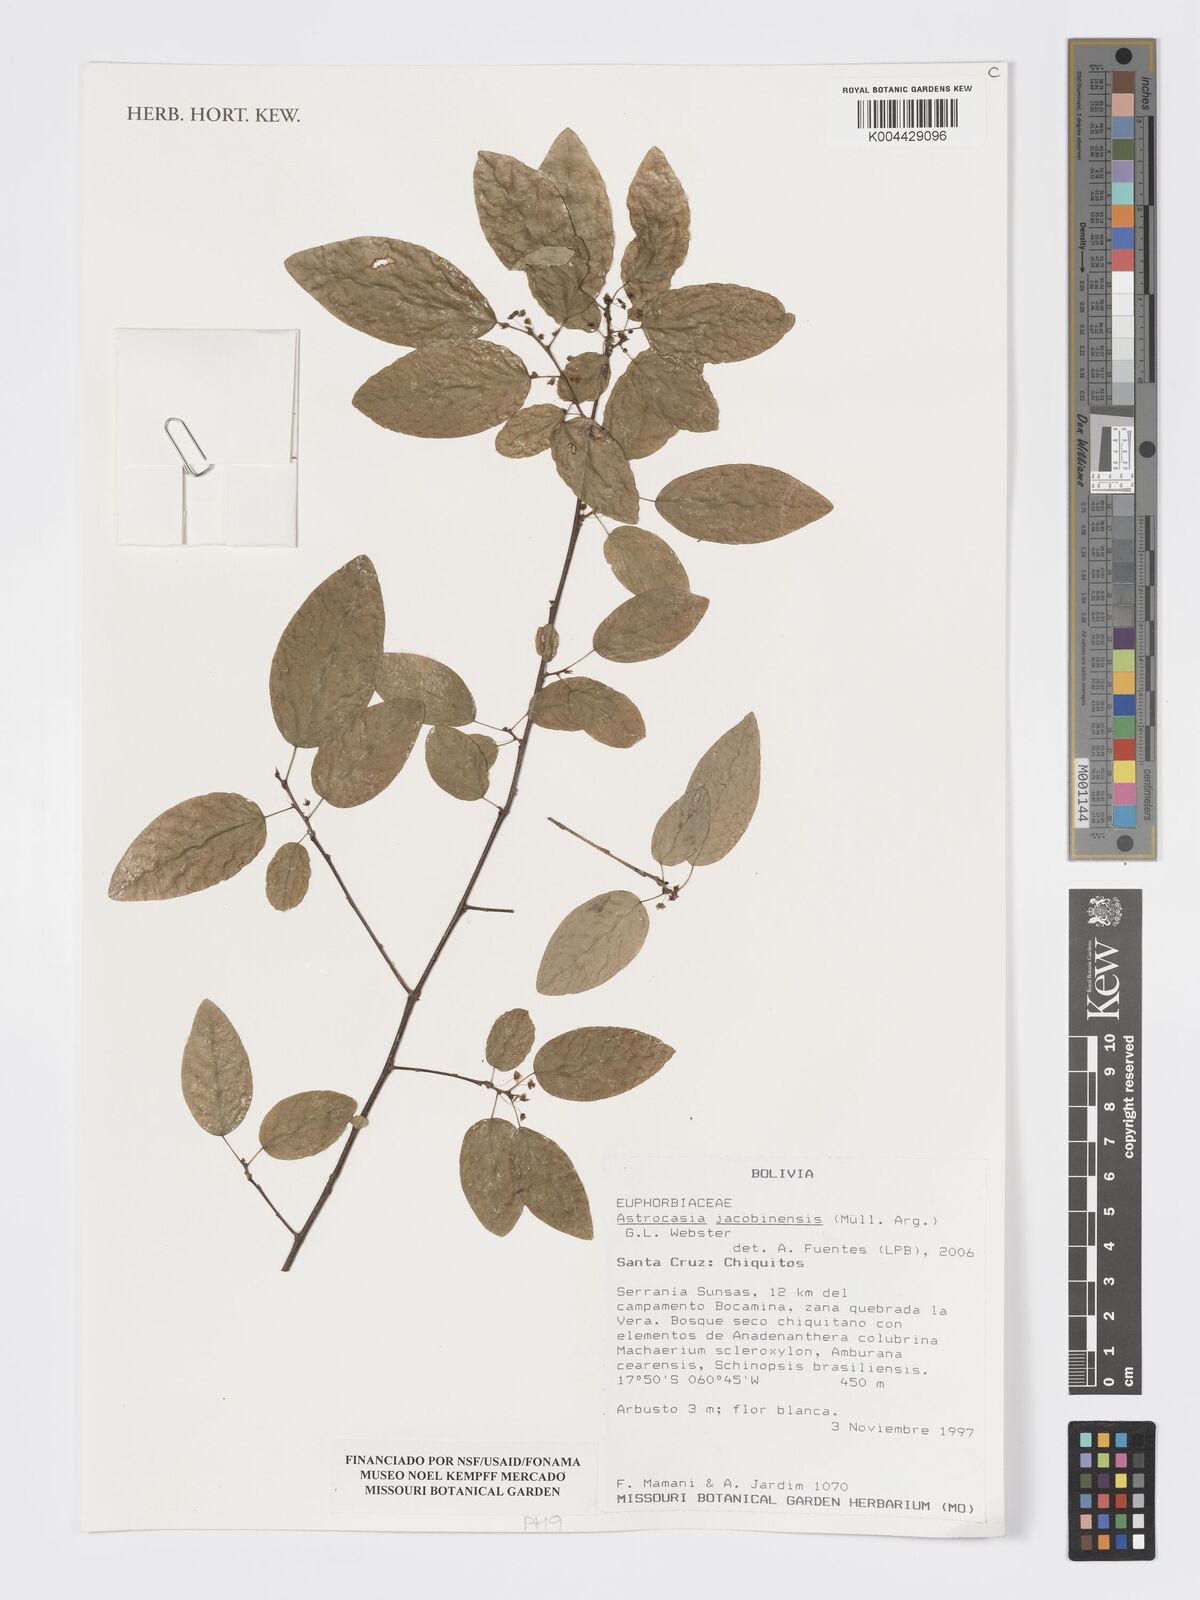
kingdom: Plantae
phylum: Tracheophyta
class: Magnoliopsida
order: Malpighiales
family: Phyllanthaceae
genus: Astrocasia
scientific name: Astrocasia jacobinensis
